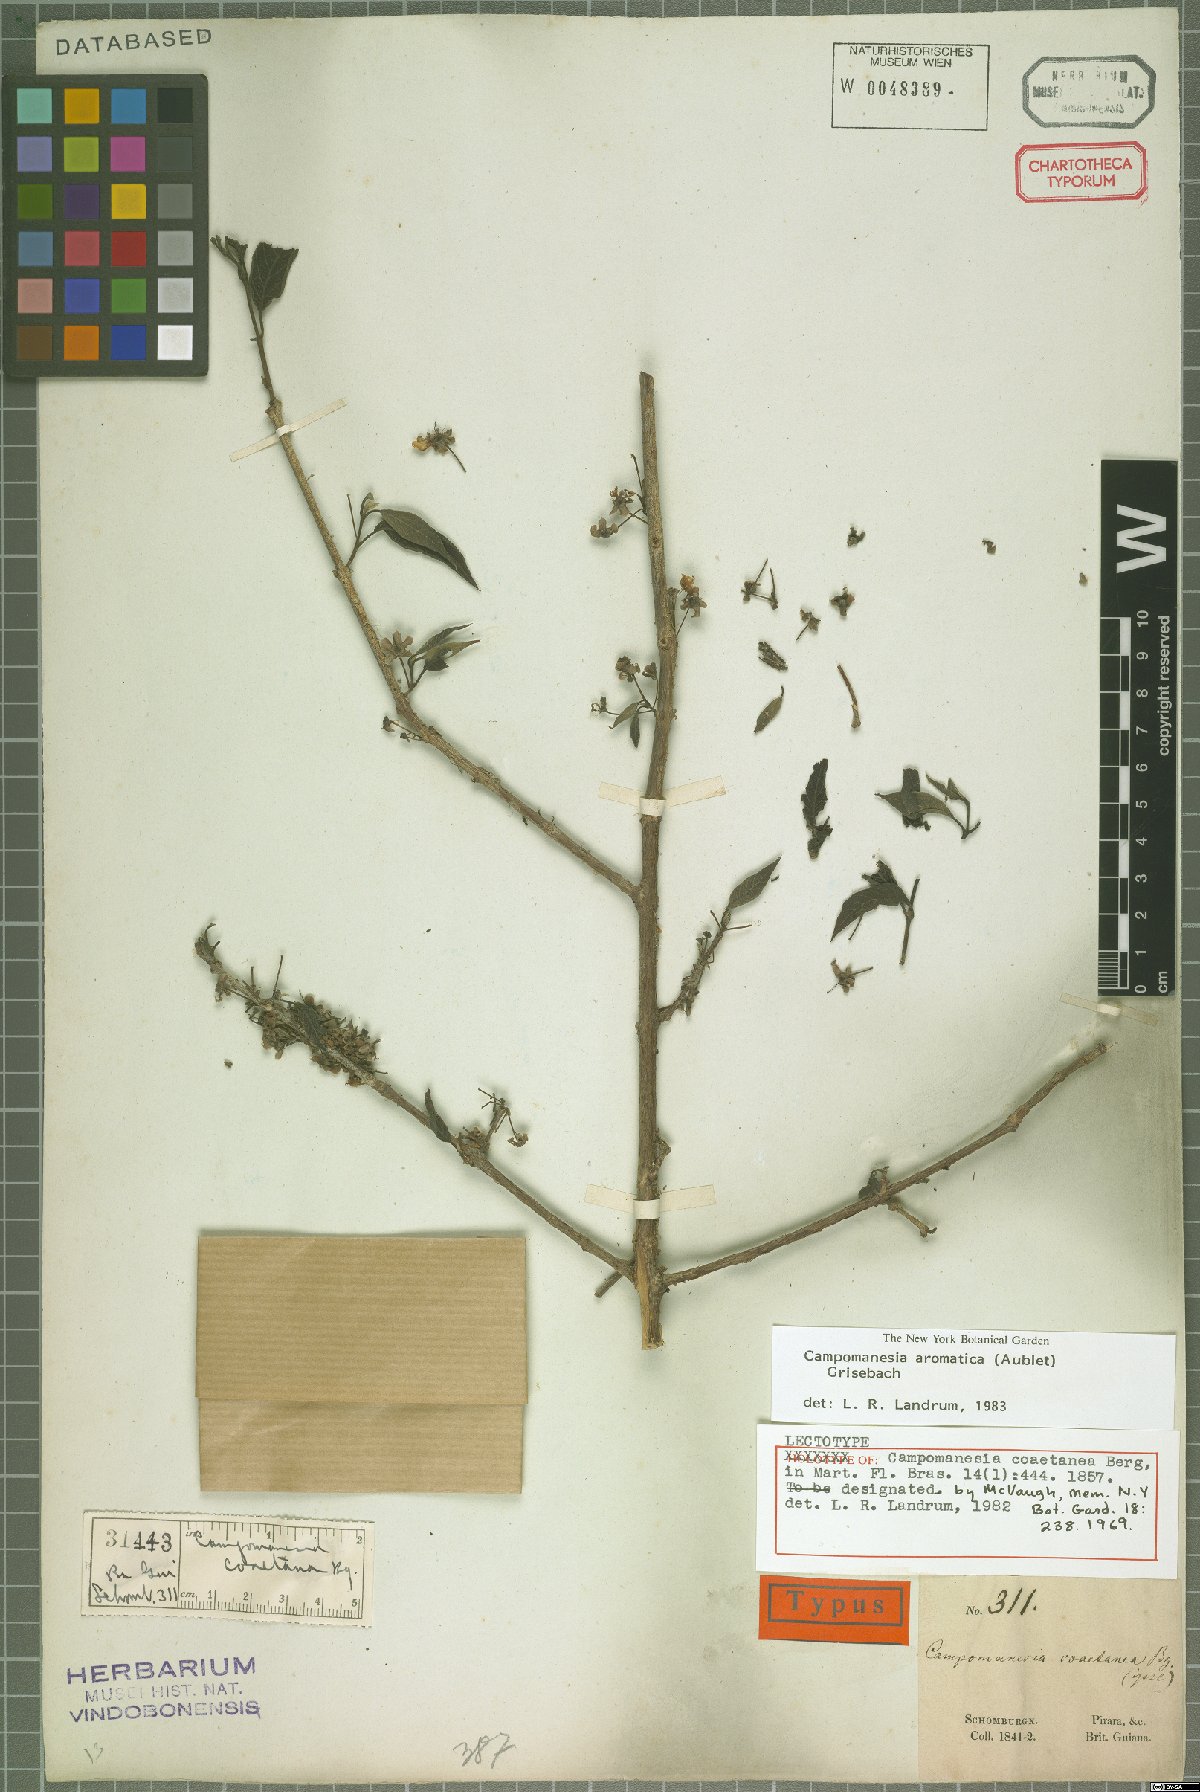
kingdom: Plantae
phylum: Tracheophyta
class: Magnoliopsida
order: Myrtales
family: Myrtaceae
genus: Campomanesia
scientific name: Campomanesia aromatica
